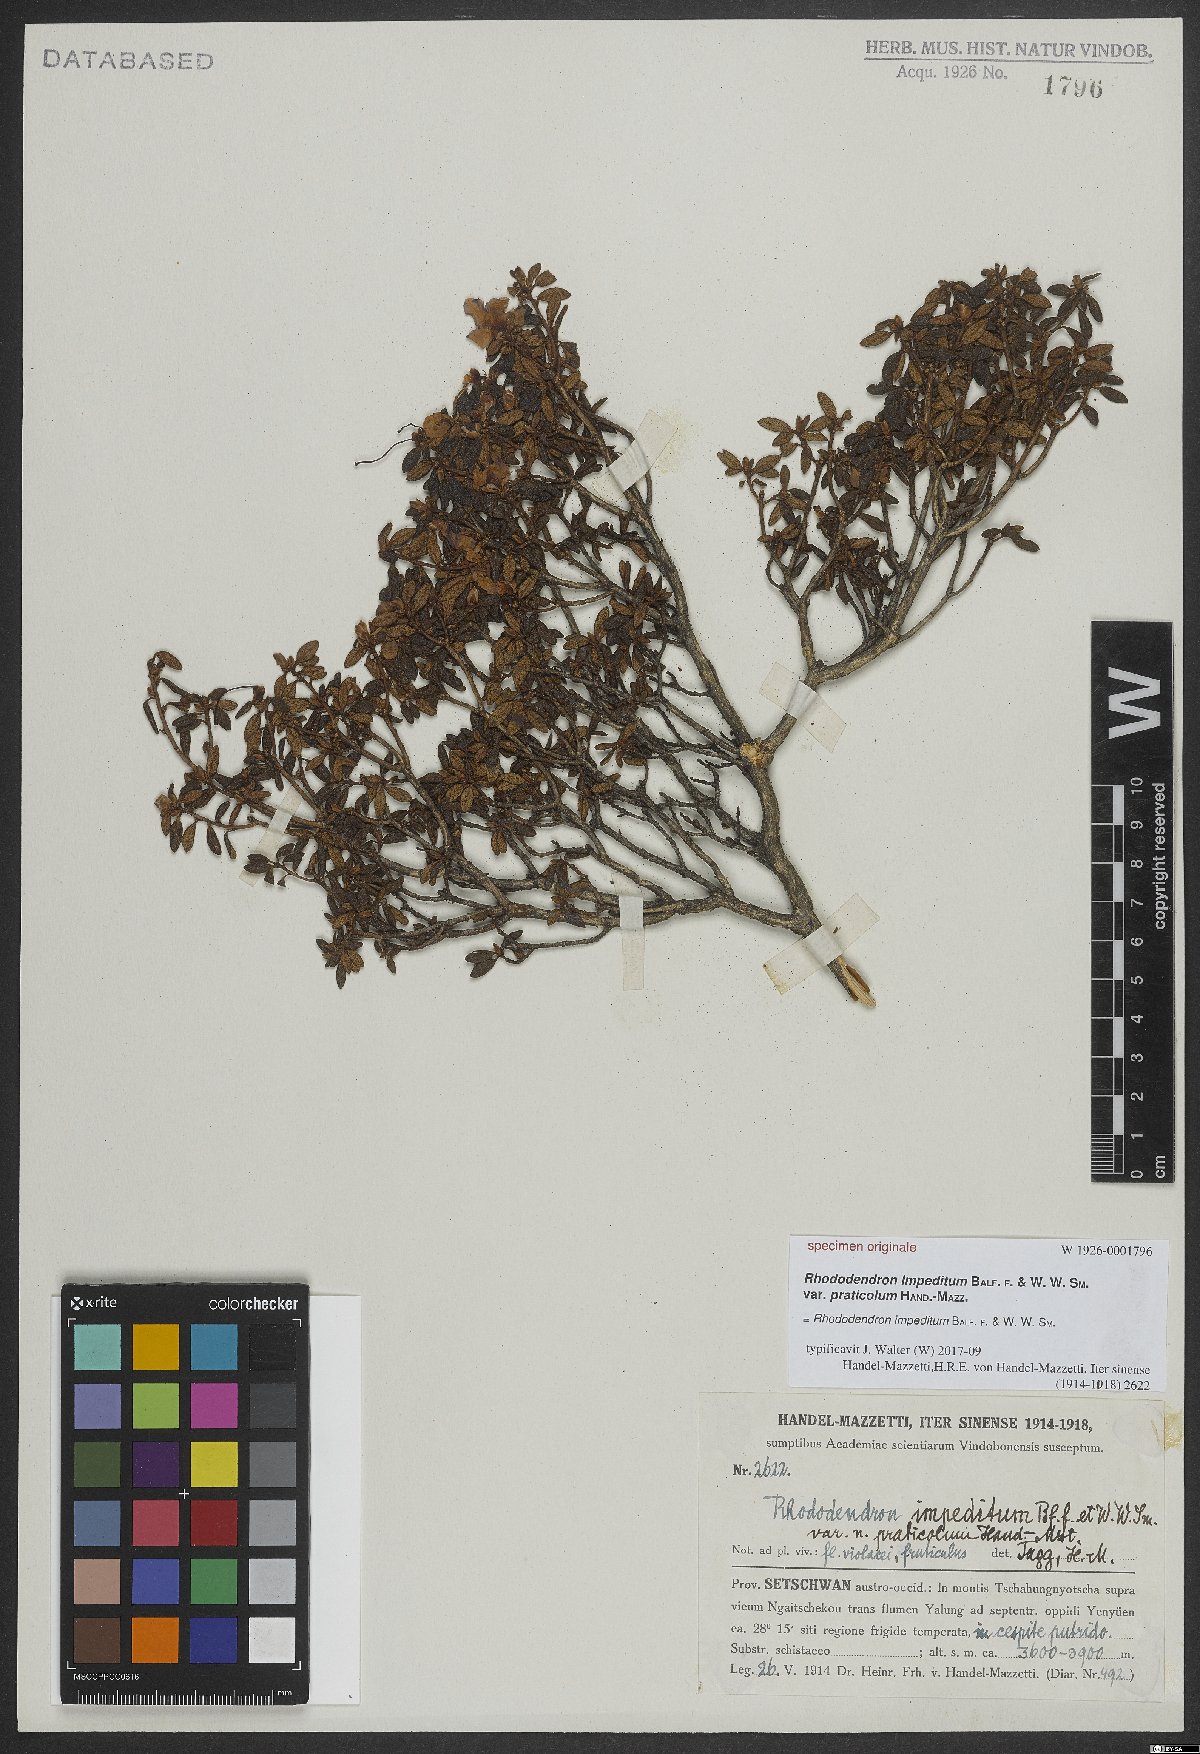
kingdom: Plantae
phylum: Tracheophyta
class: Magnoliopsida
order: Ericales
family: Ericaceae
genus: Rhododendron
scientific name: Rhododendron impeditum
